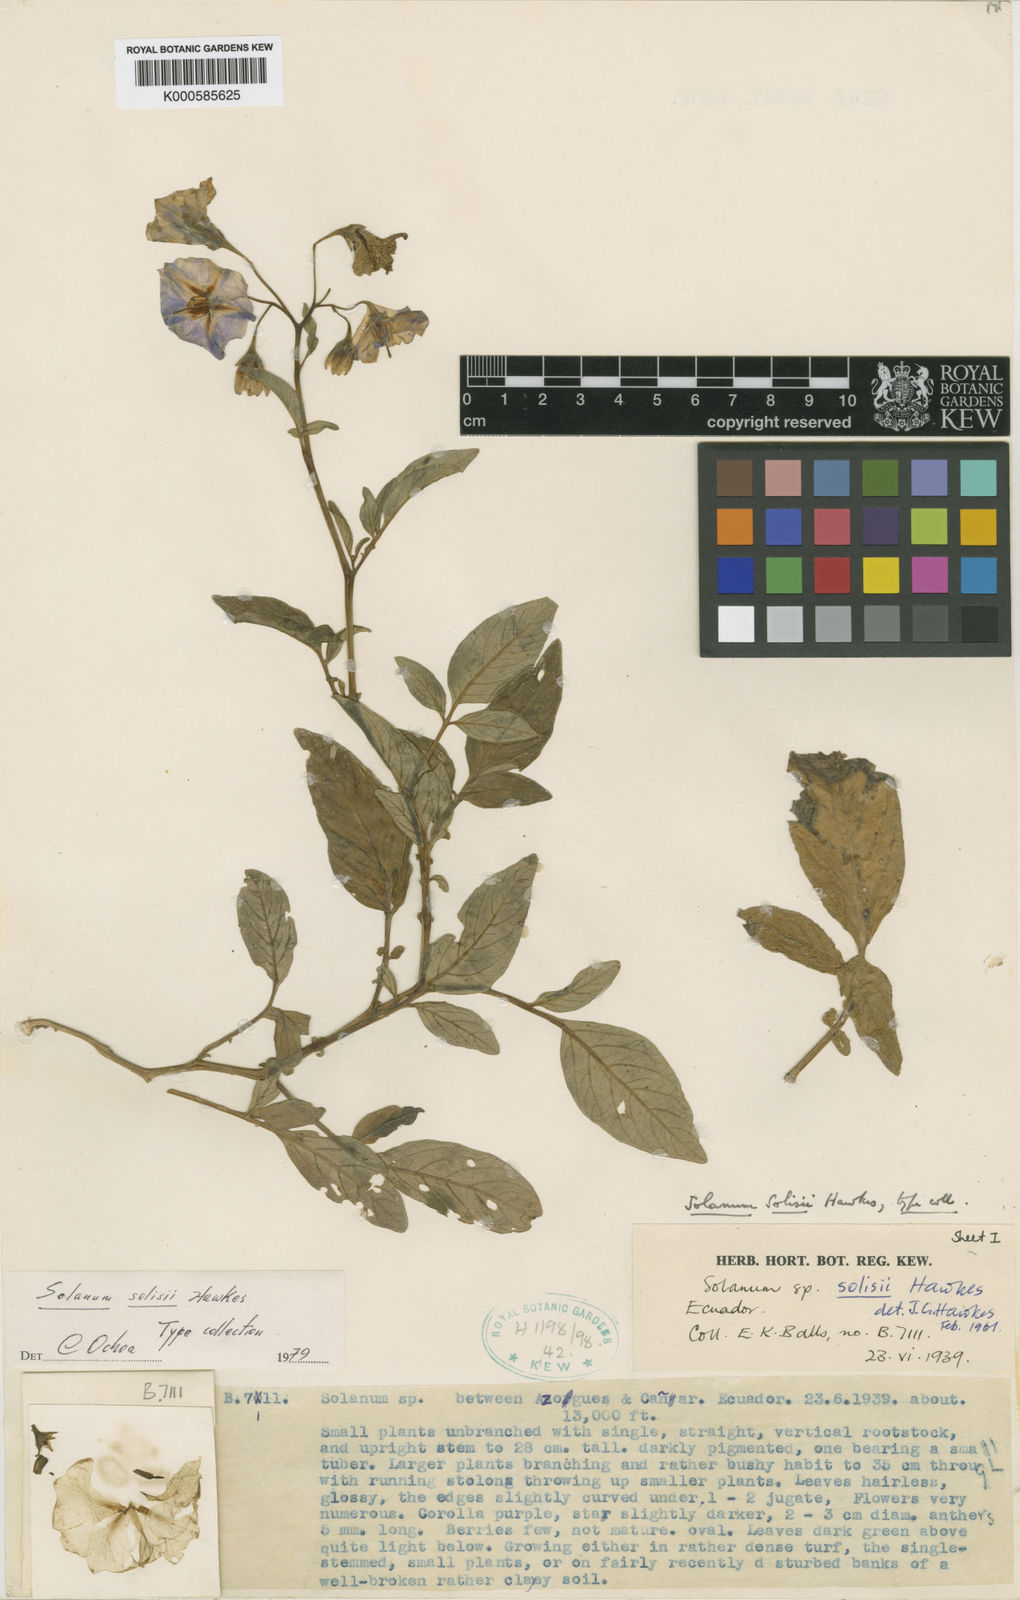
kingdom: Plantae
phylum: Tracheophyta
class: Magnoliopsida
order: Solanales
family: Solanaceae
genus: Solanum
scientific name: Solanum andreanum
